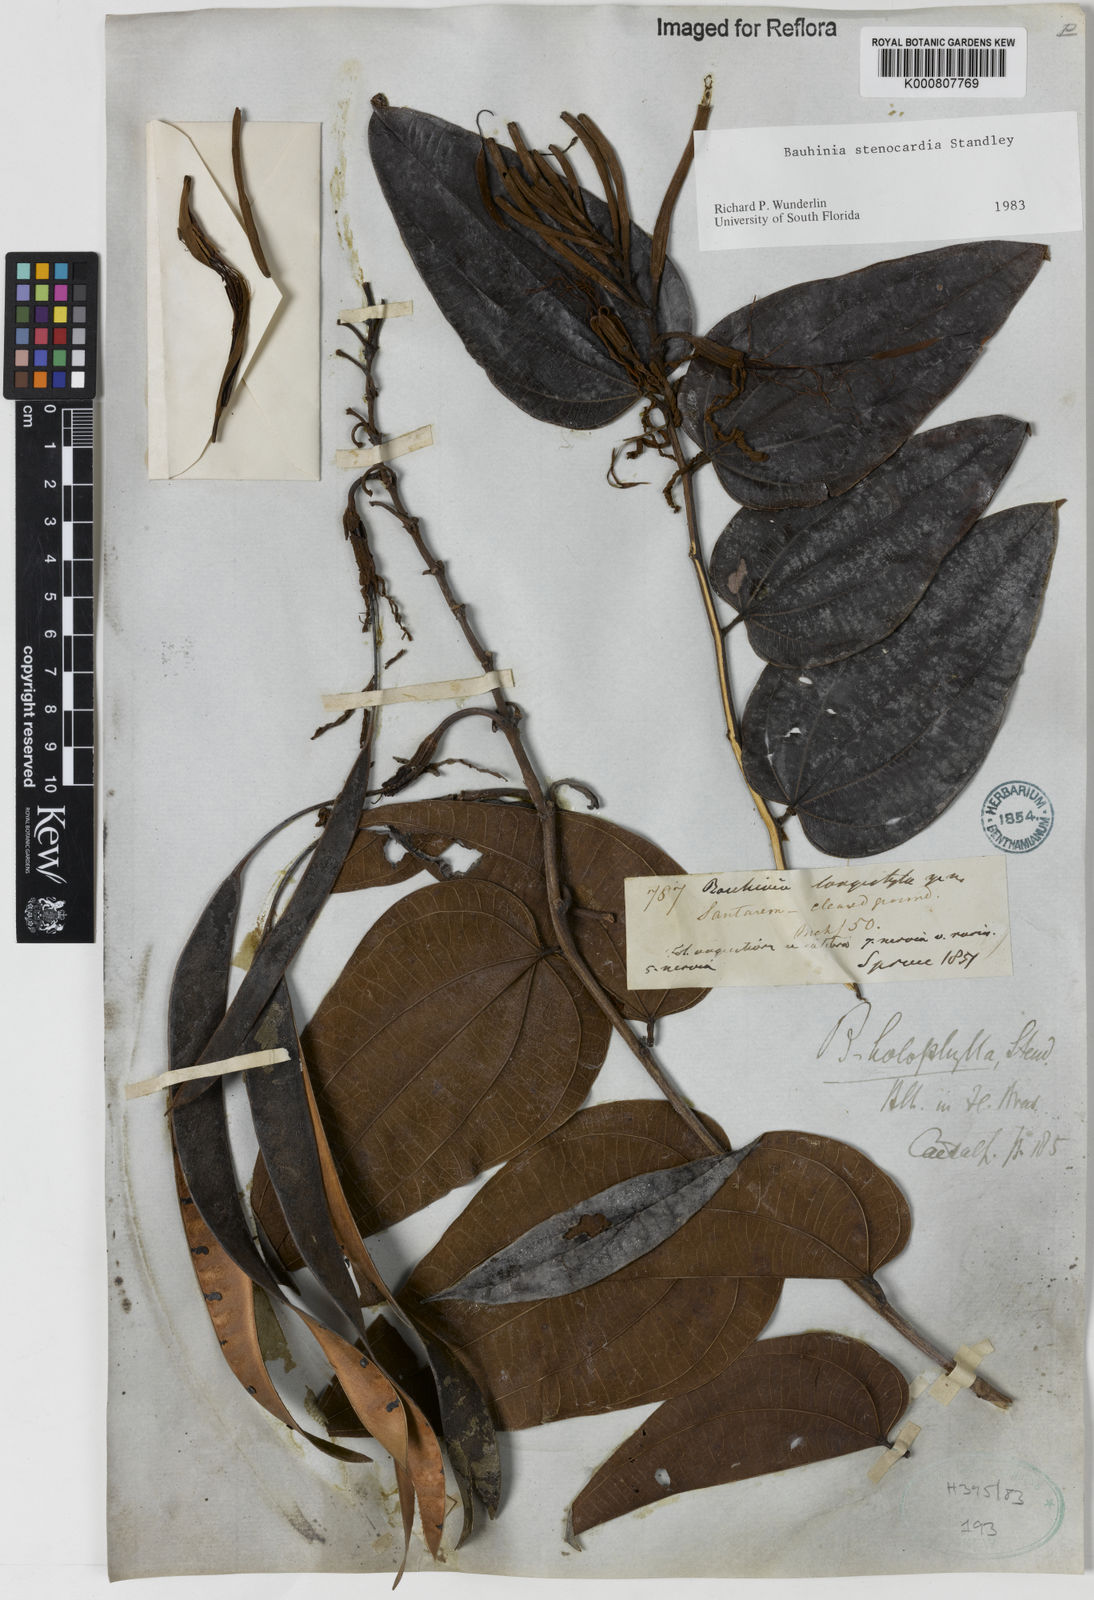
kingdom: Plantae
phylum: Tracheophyta
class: Magnoliopsida
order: Fabales
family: Fabaceae
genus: Bauhinia
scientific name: Bauhinia longicuspis
